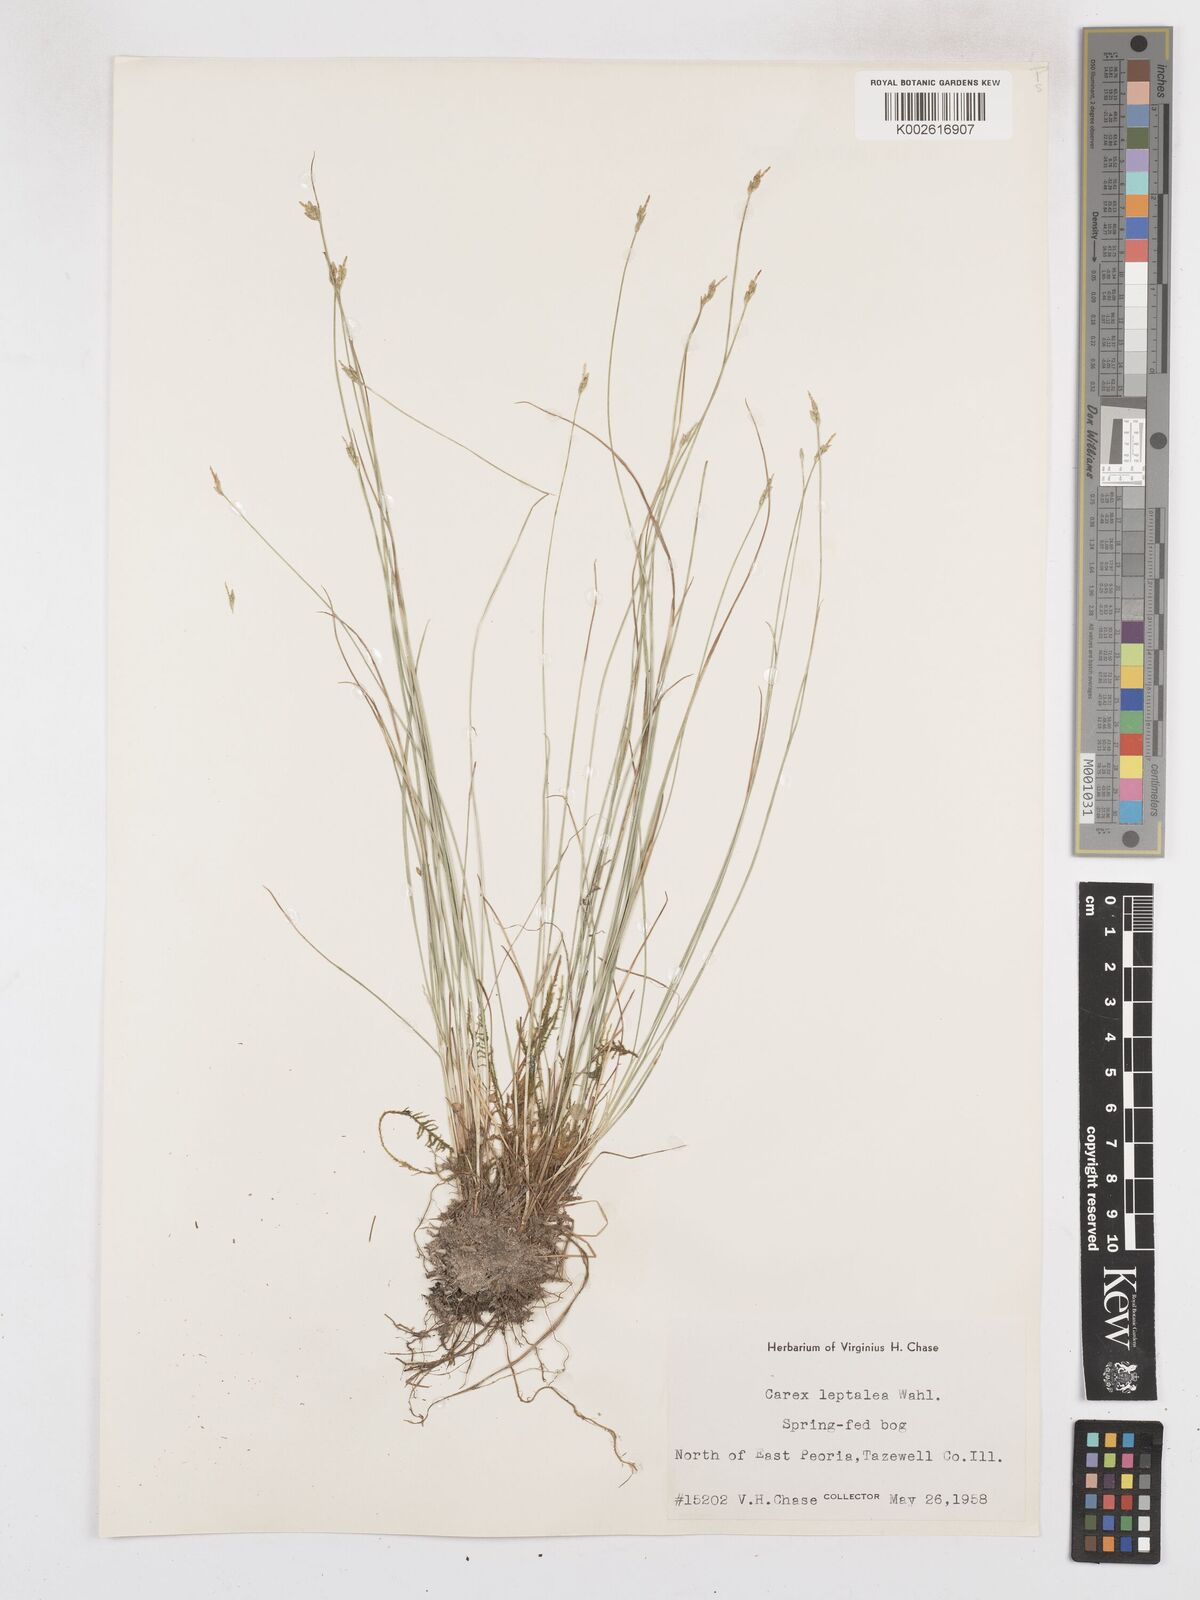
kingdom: Plantae
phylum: Tracheophyta
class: Liliopsida
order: Poales
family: Cyperaceae
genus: Carex
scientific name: Carex leptalea
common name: Bristly-stalked sedge
